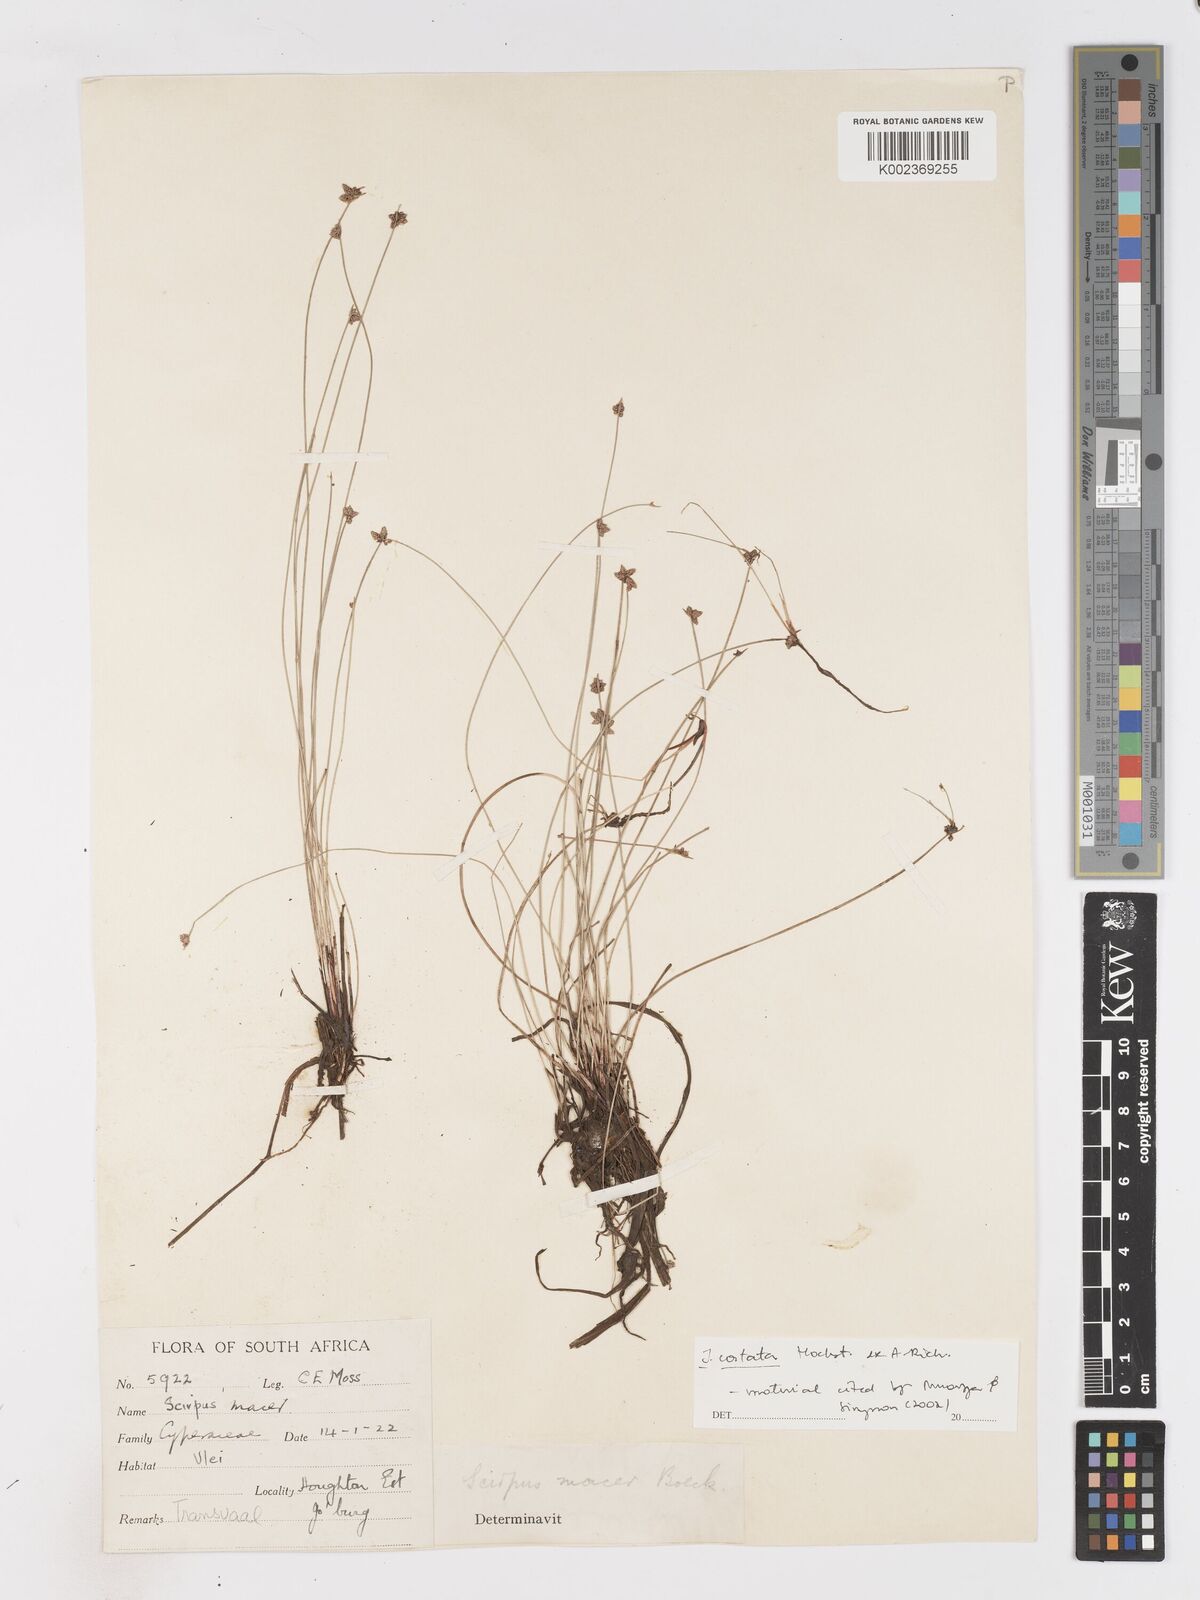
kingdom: Plantae
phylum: Tracheophyta
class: Liliopsida
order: Poales
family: Cyperaceae
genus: Isolepis
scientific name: Isolepis costata
